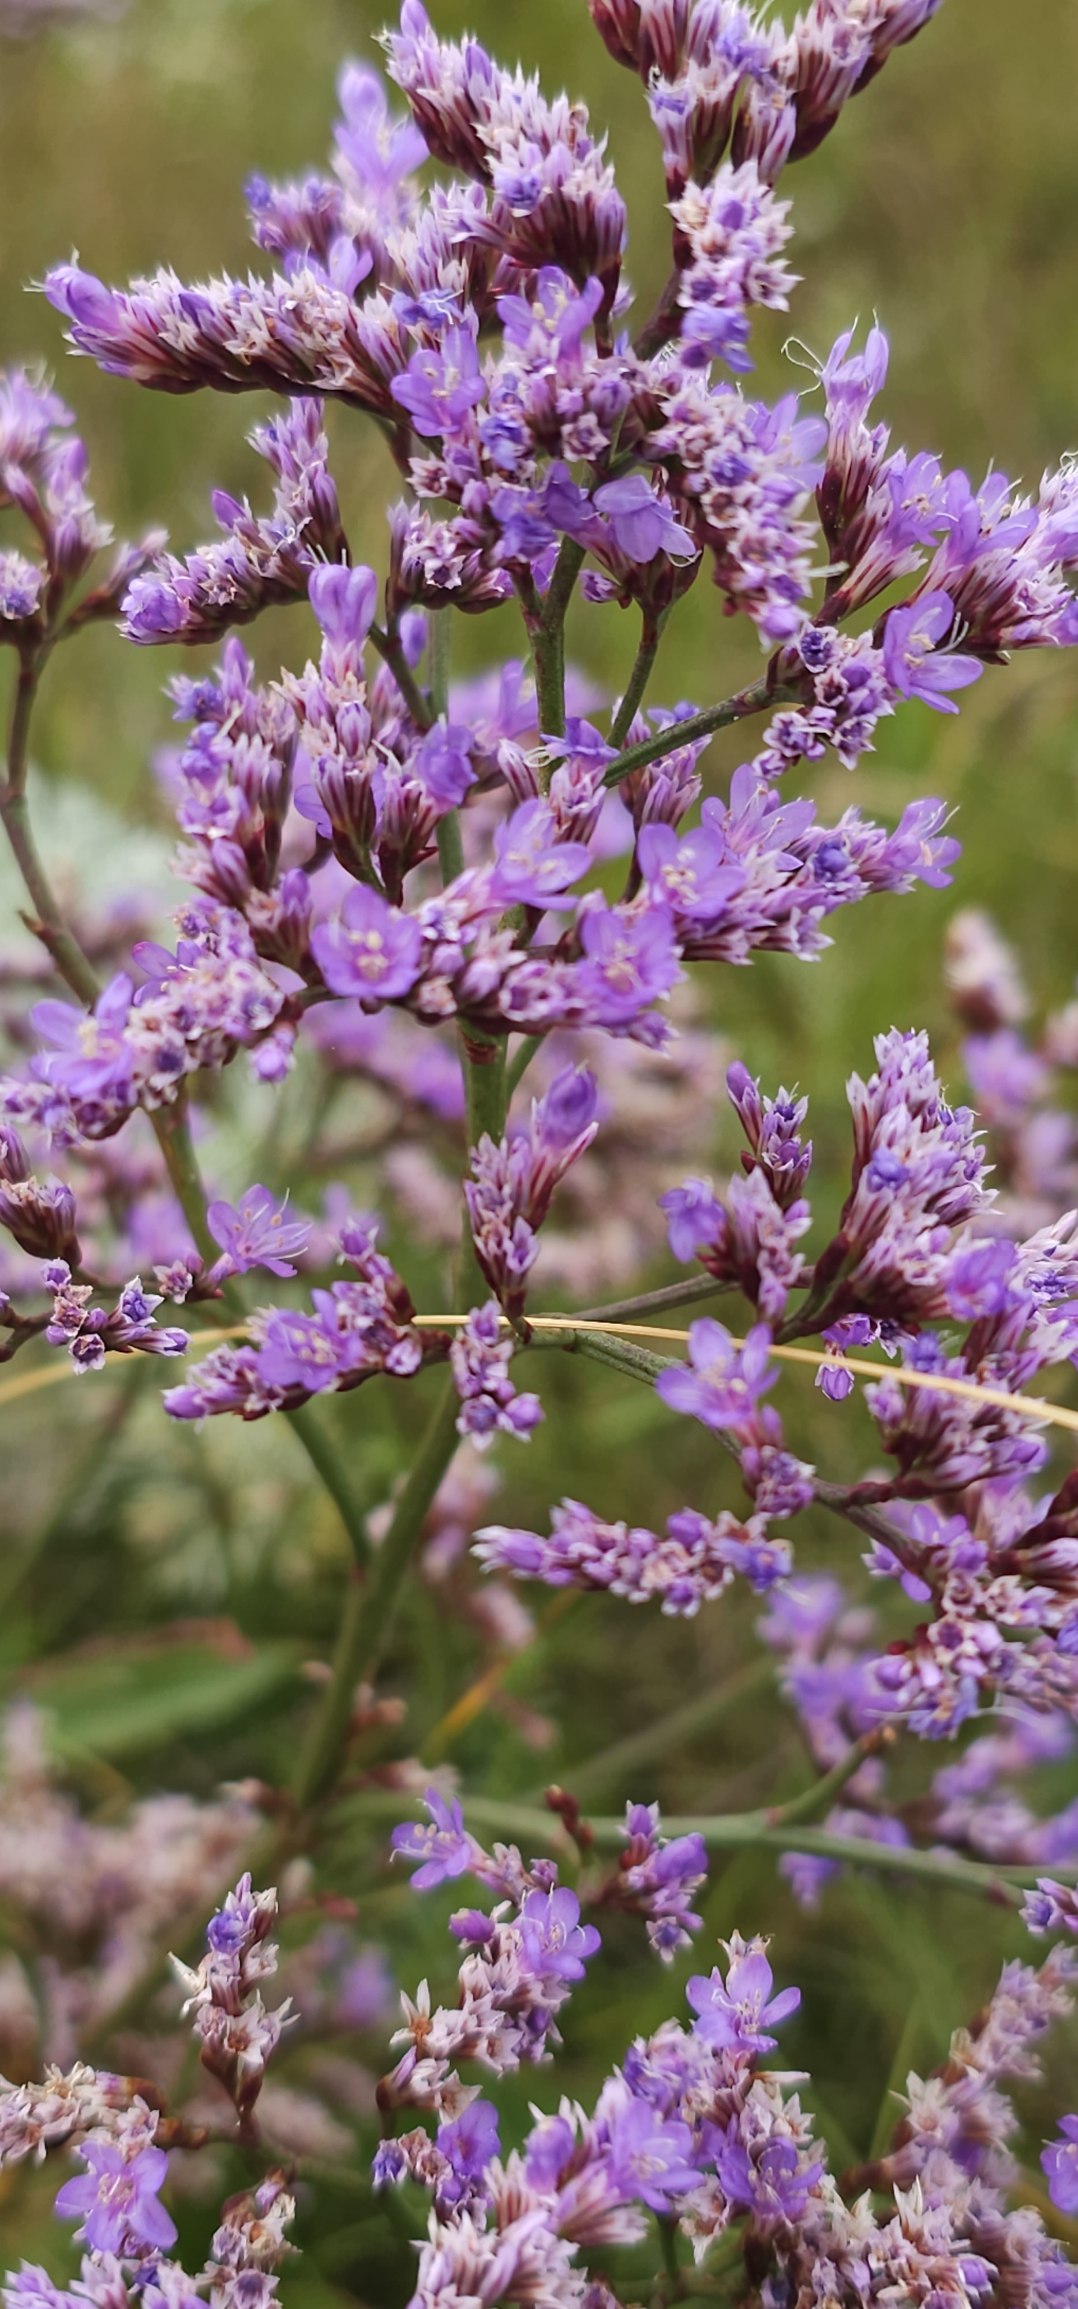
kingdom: Plantae
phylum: Tracheophyta
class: Magnoliopsida
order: Caryophyllales
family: Plumbaginaceae
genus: Limonium
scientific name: Limonium vulgare
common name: Tætblomstret hindebæger
